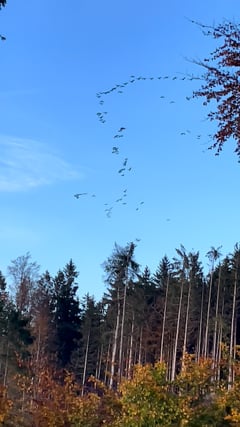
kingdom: Animalia
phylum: Chordata
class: Aves
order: Gruiformes
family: Gruidae
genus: Grus
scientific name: Grus grus
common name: Common crane
